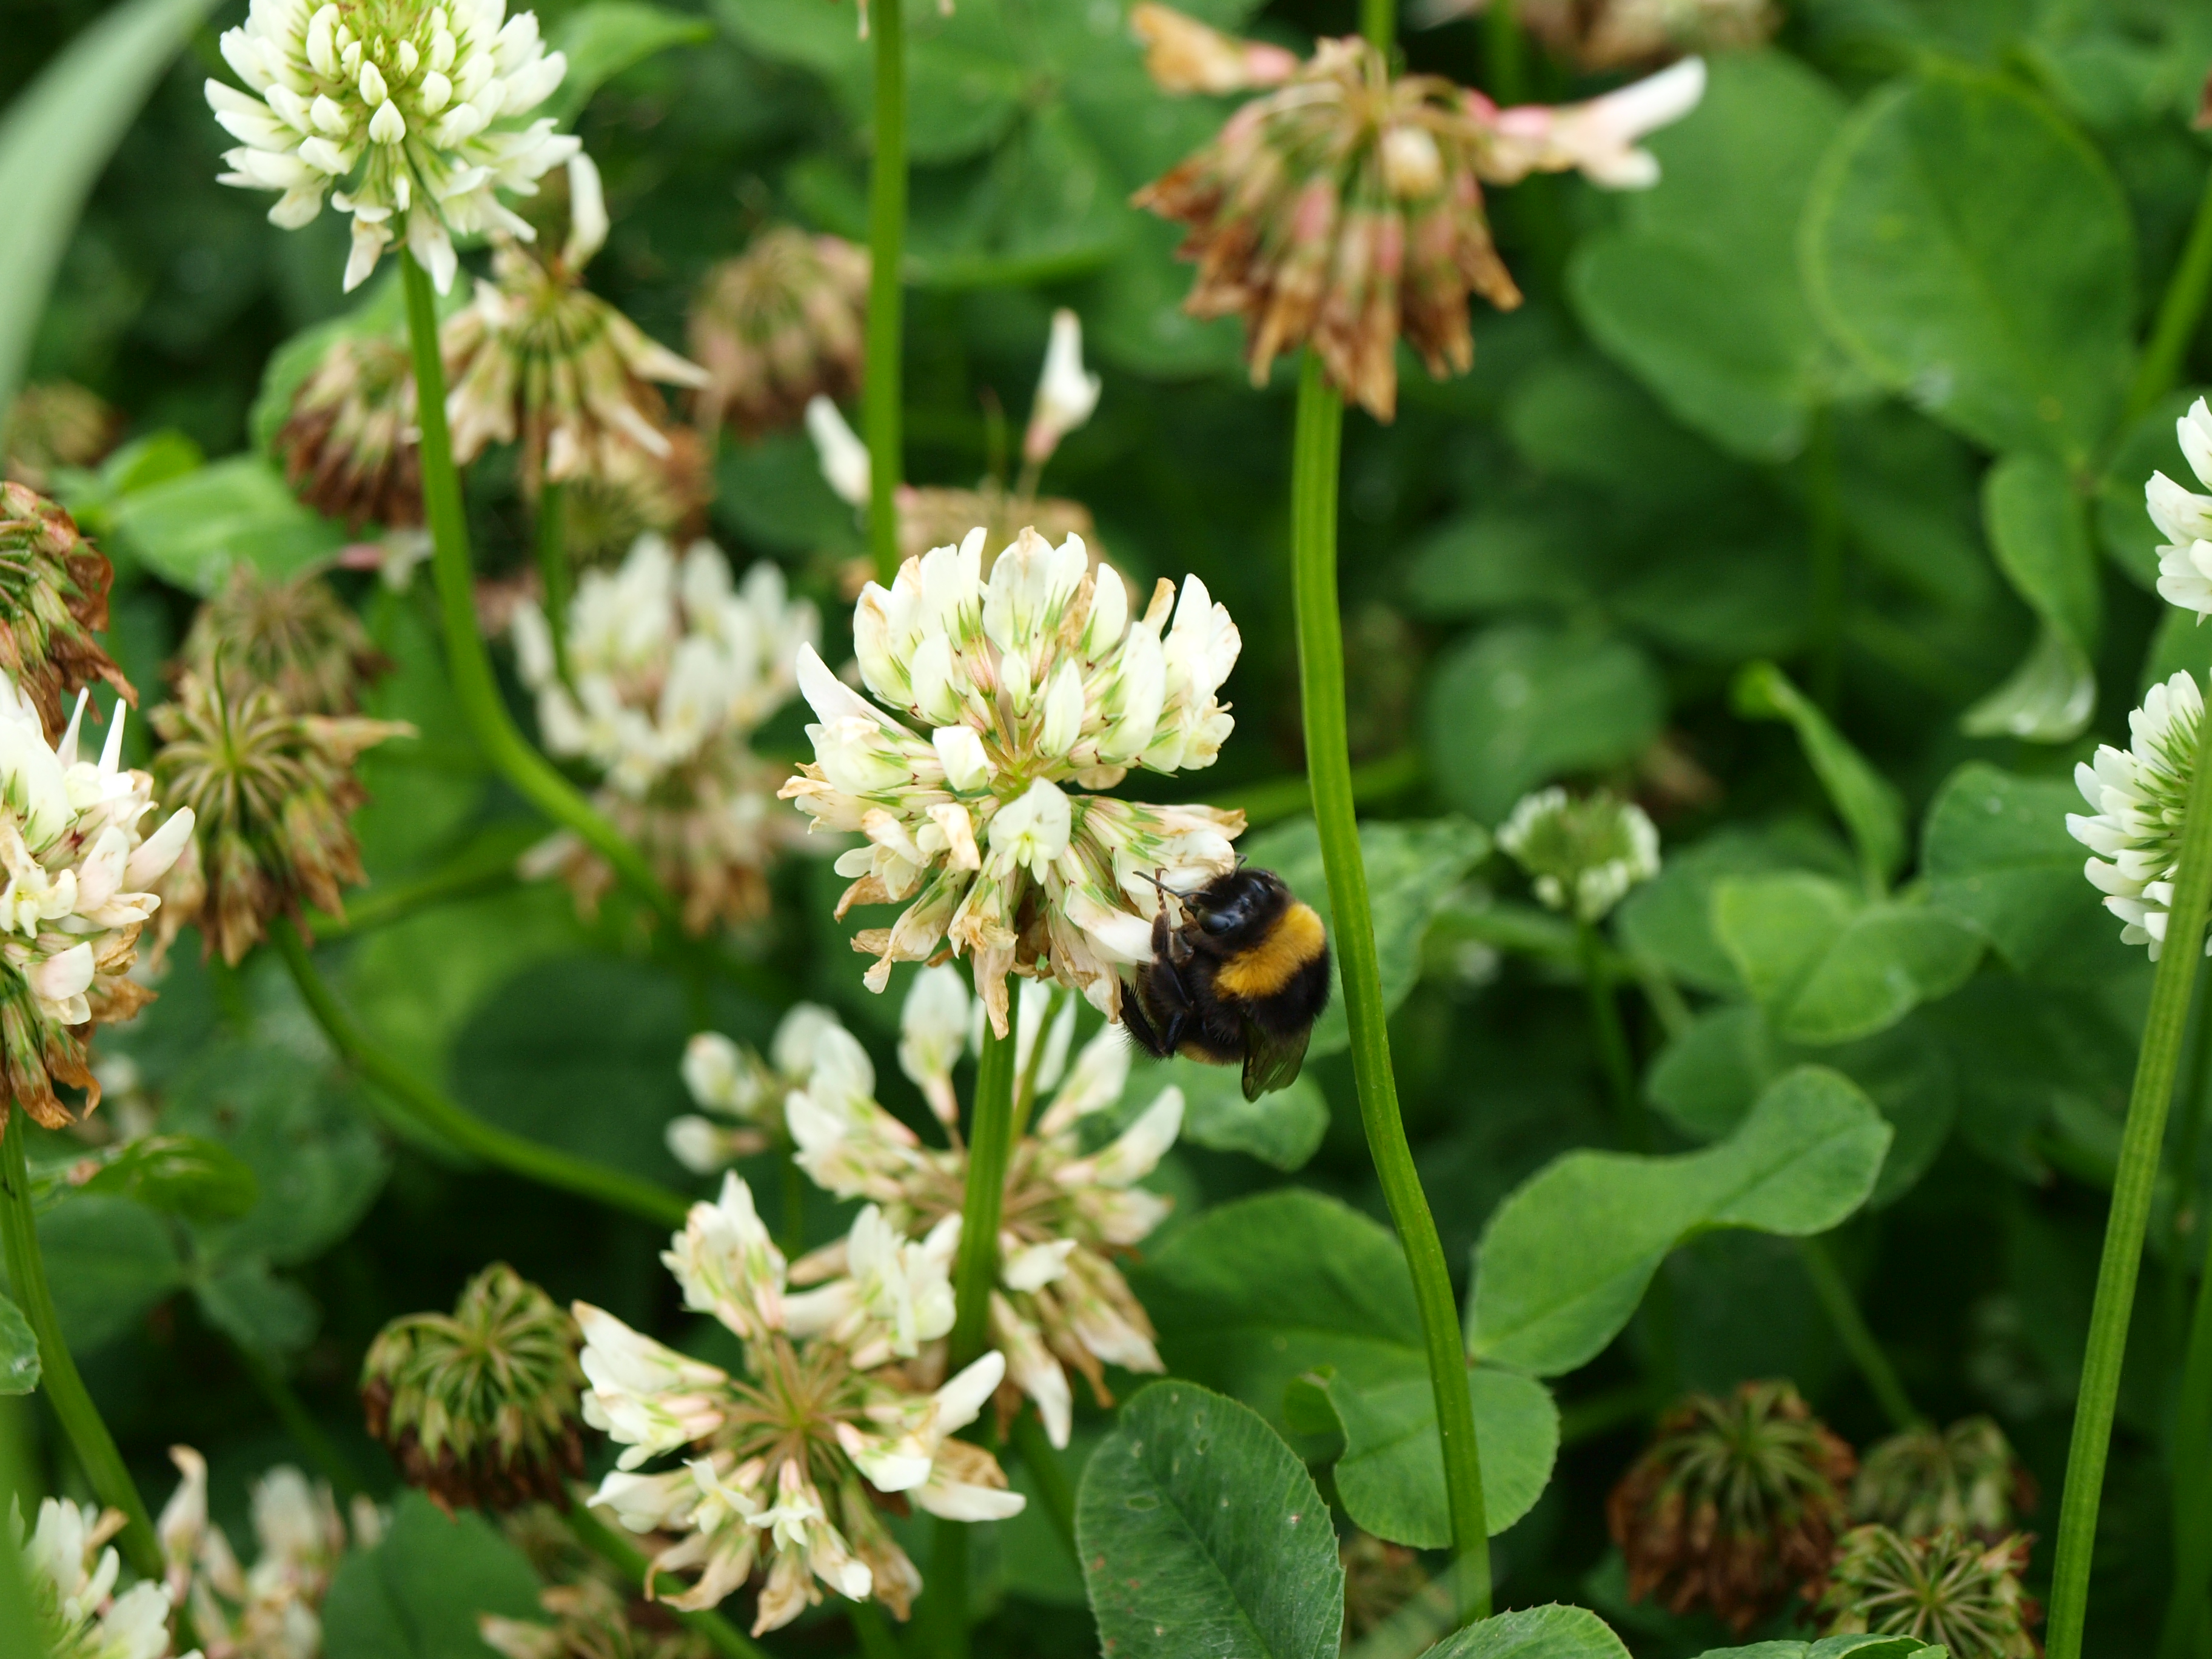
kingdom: Plantae
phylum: Tracheophyta
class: Magnoliopsida
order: Fabales
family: Fabaceae
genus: Trifolium
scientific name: Trifolium repens
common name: White clover
